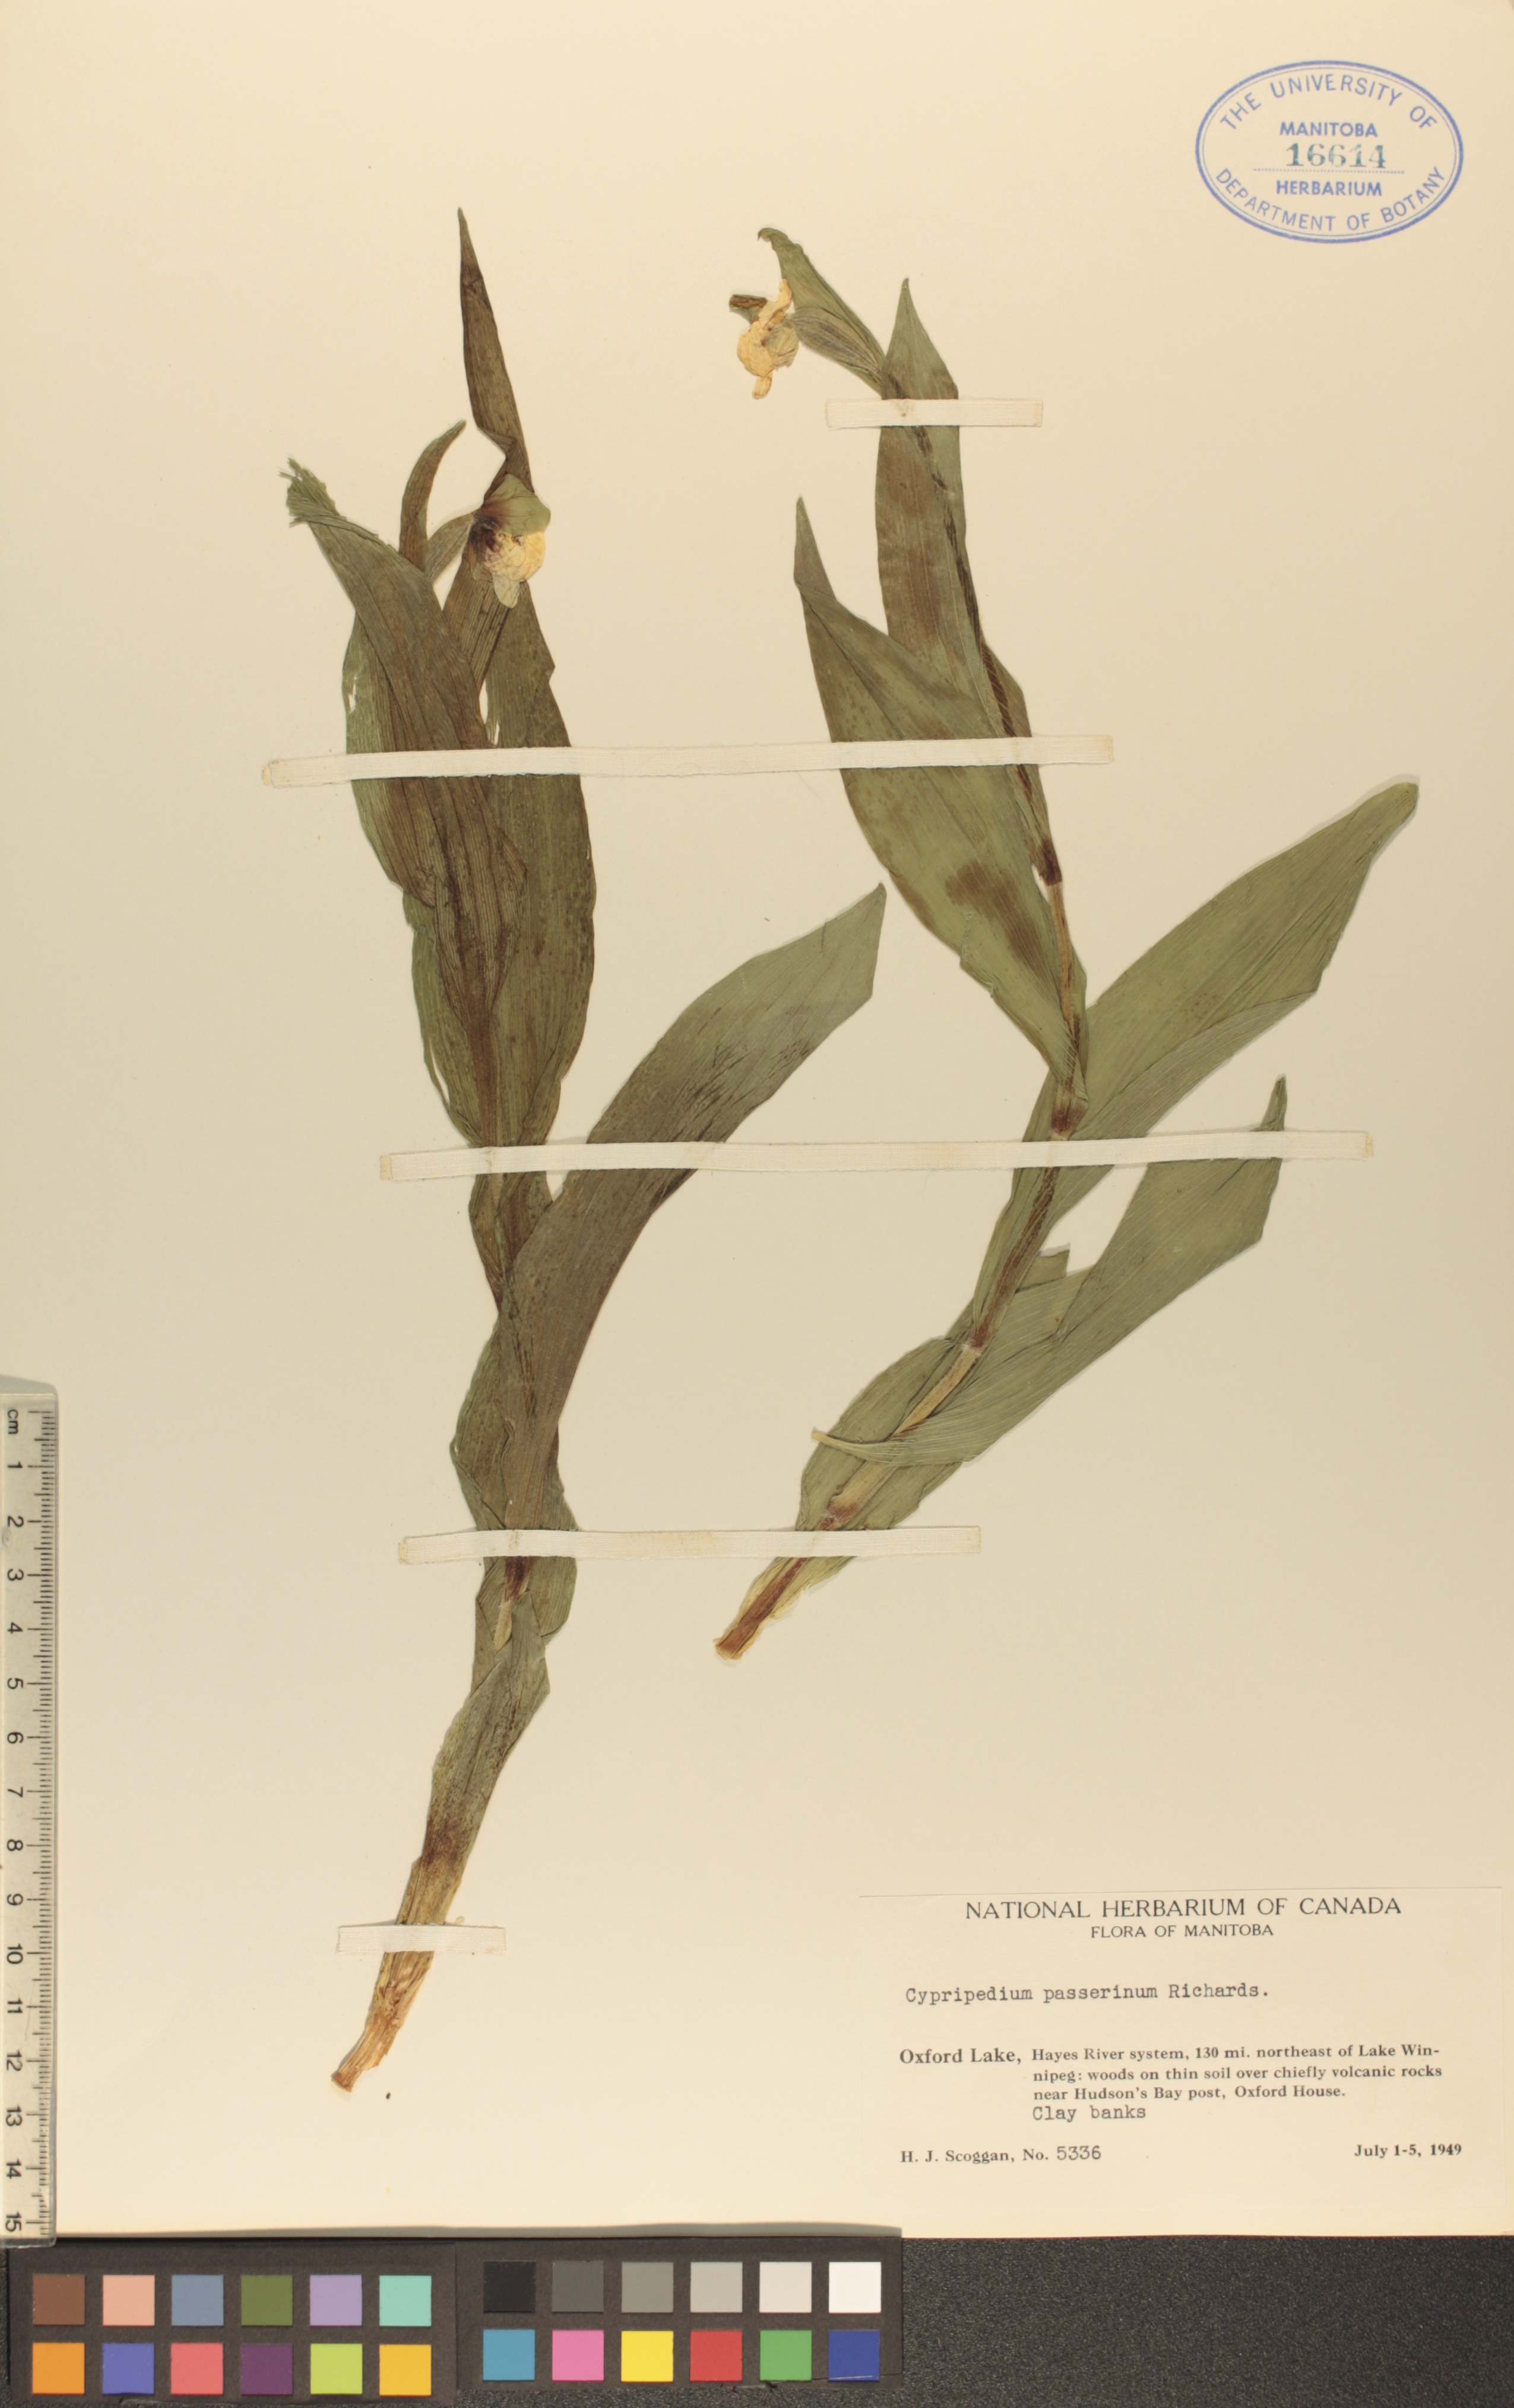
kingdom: Plantae
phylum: Tracheophyta
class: Liliopsida
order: Asparagales
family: Orchidaceae
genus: Cypripedium
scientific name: Cypripedium passerinum
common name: Sparrow's-egg lady's-slipper
